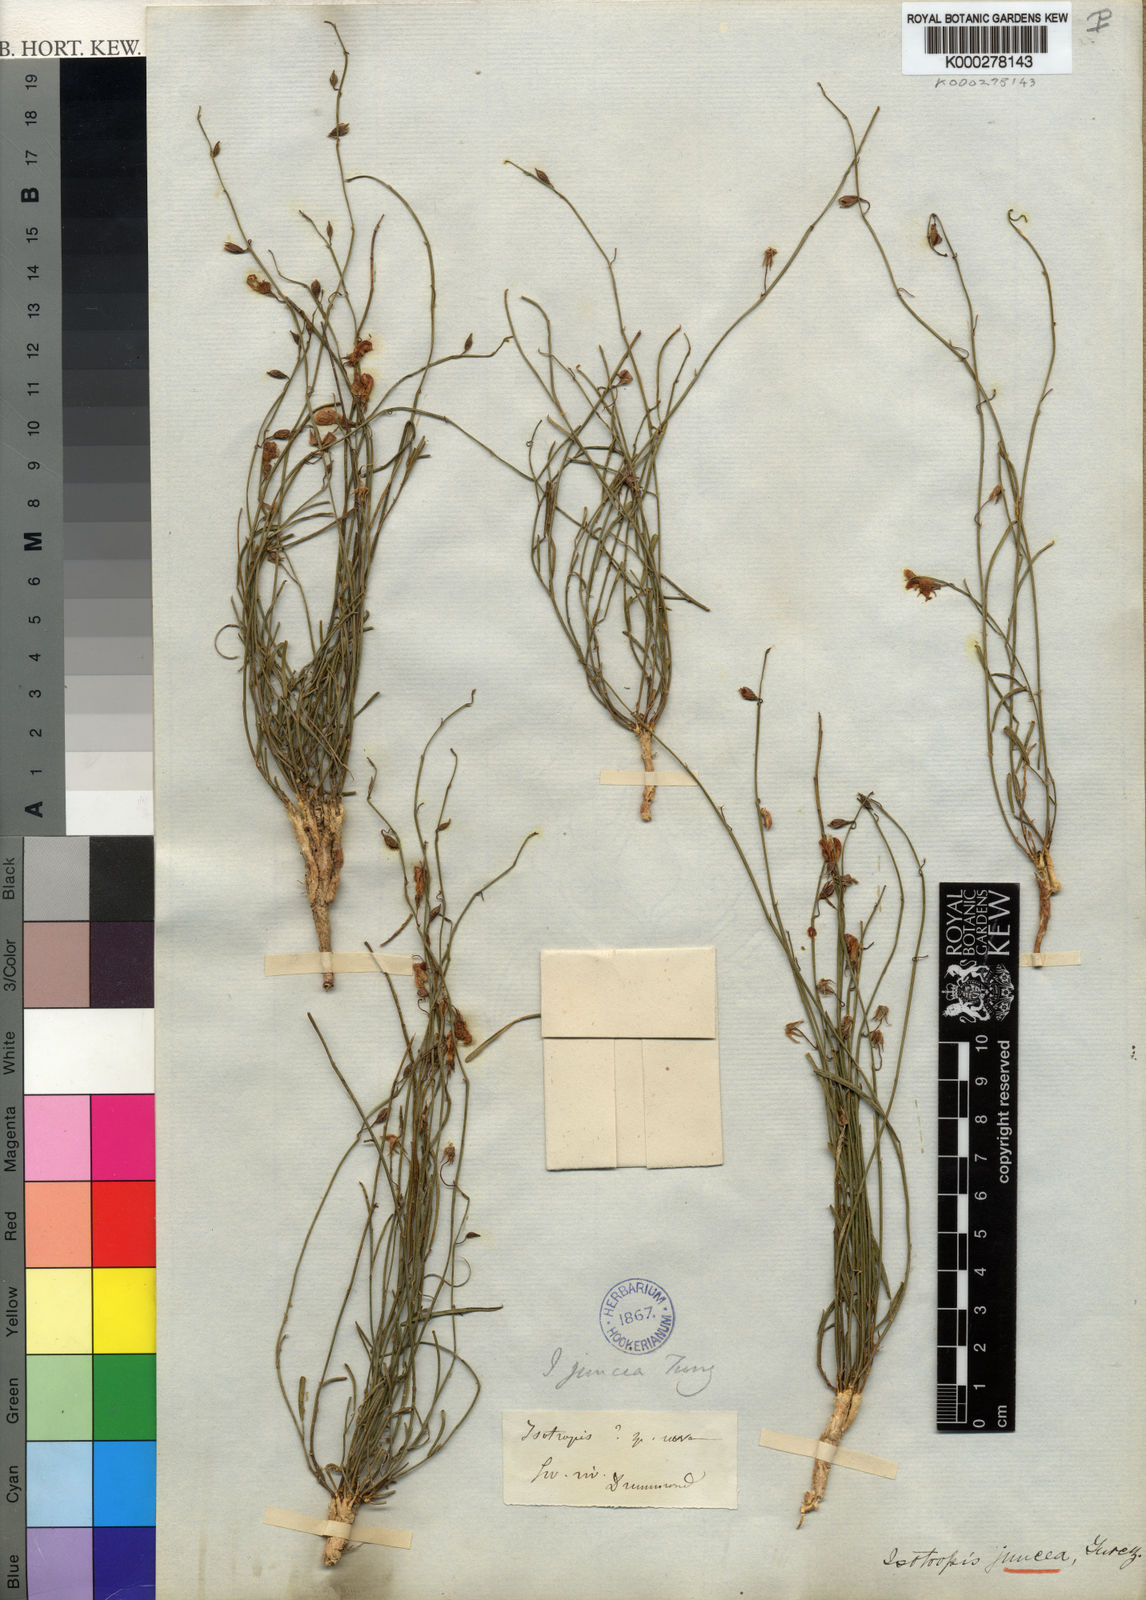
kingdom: Plantae
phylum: Tracheophyta
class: Magnoliopsida
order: Fabales
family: Fabaceae
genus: Isotropis
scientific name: Isotropis juncea
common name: Slender lamb-poison
